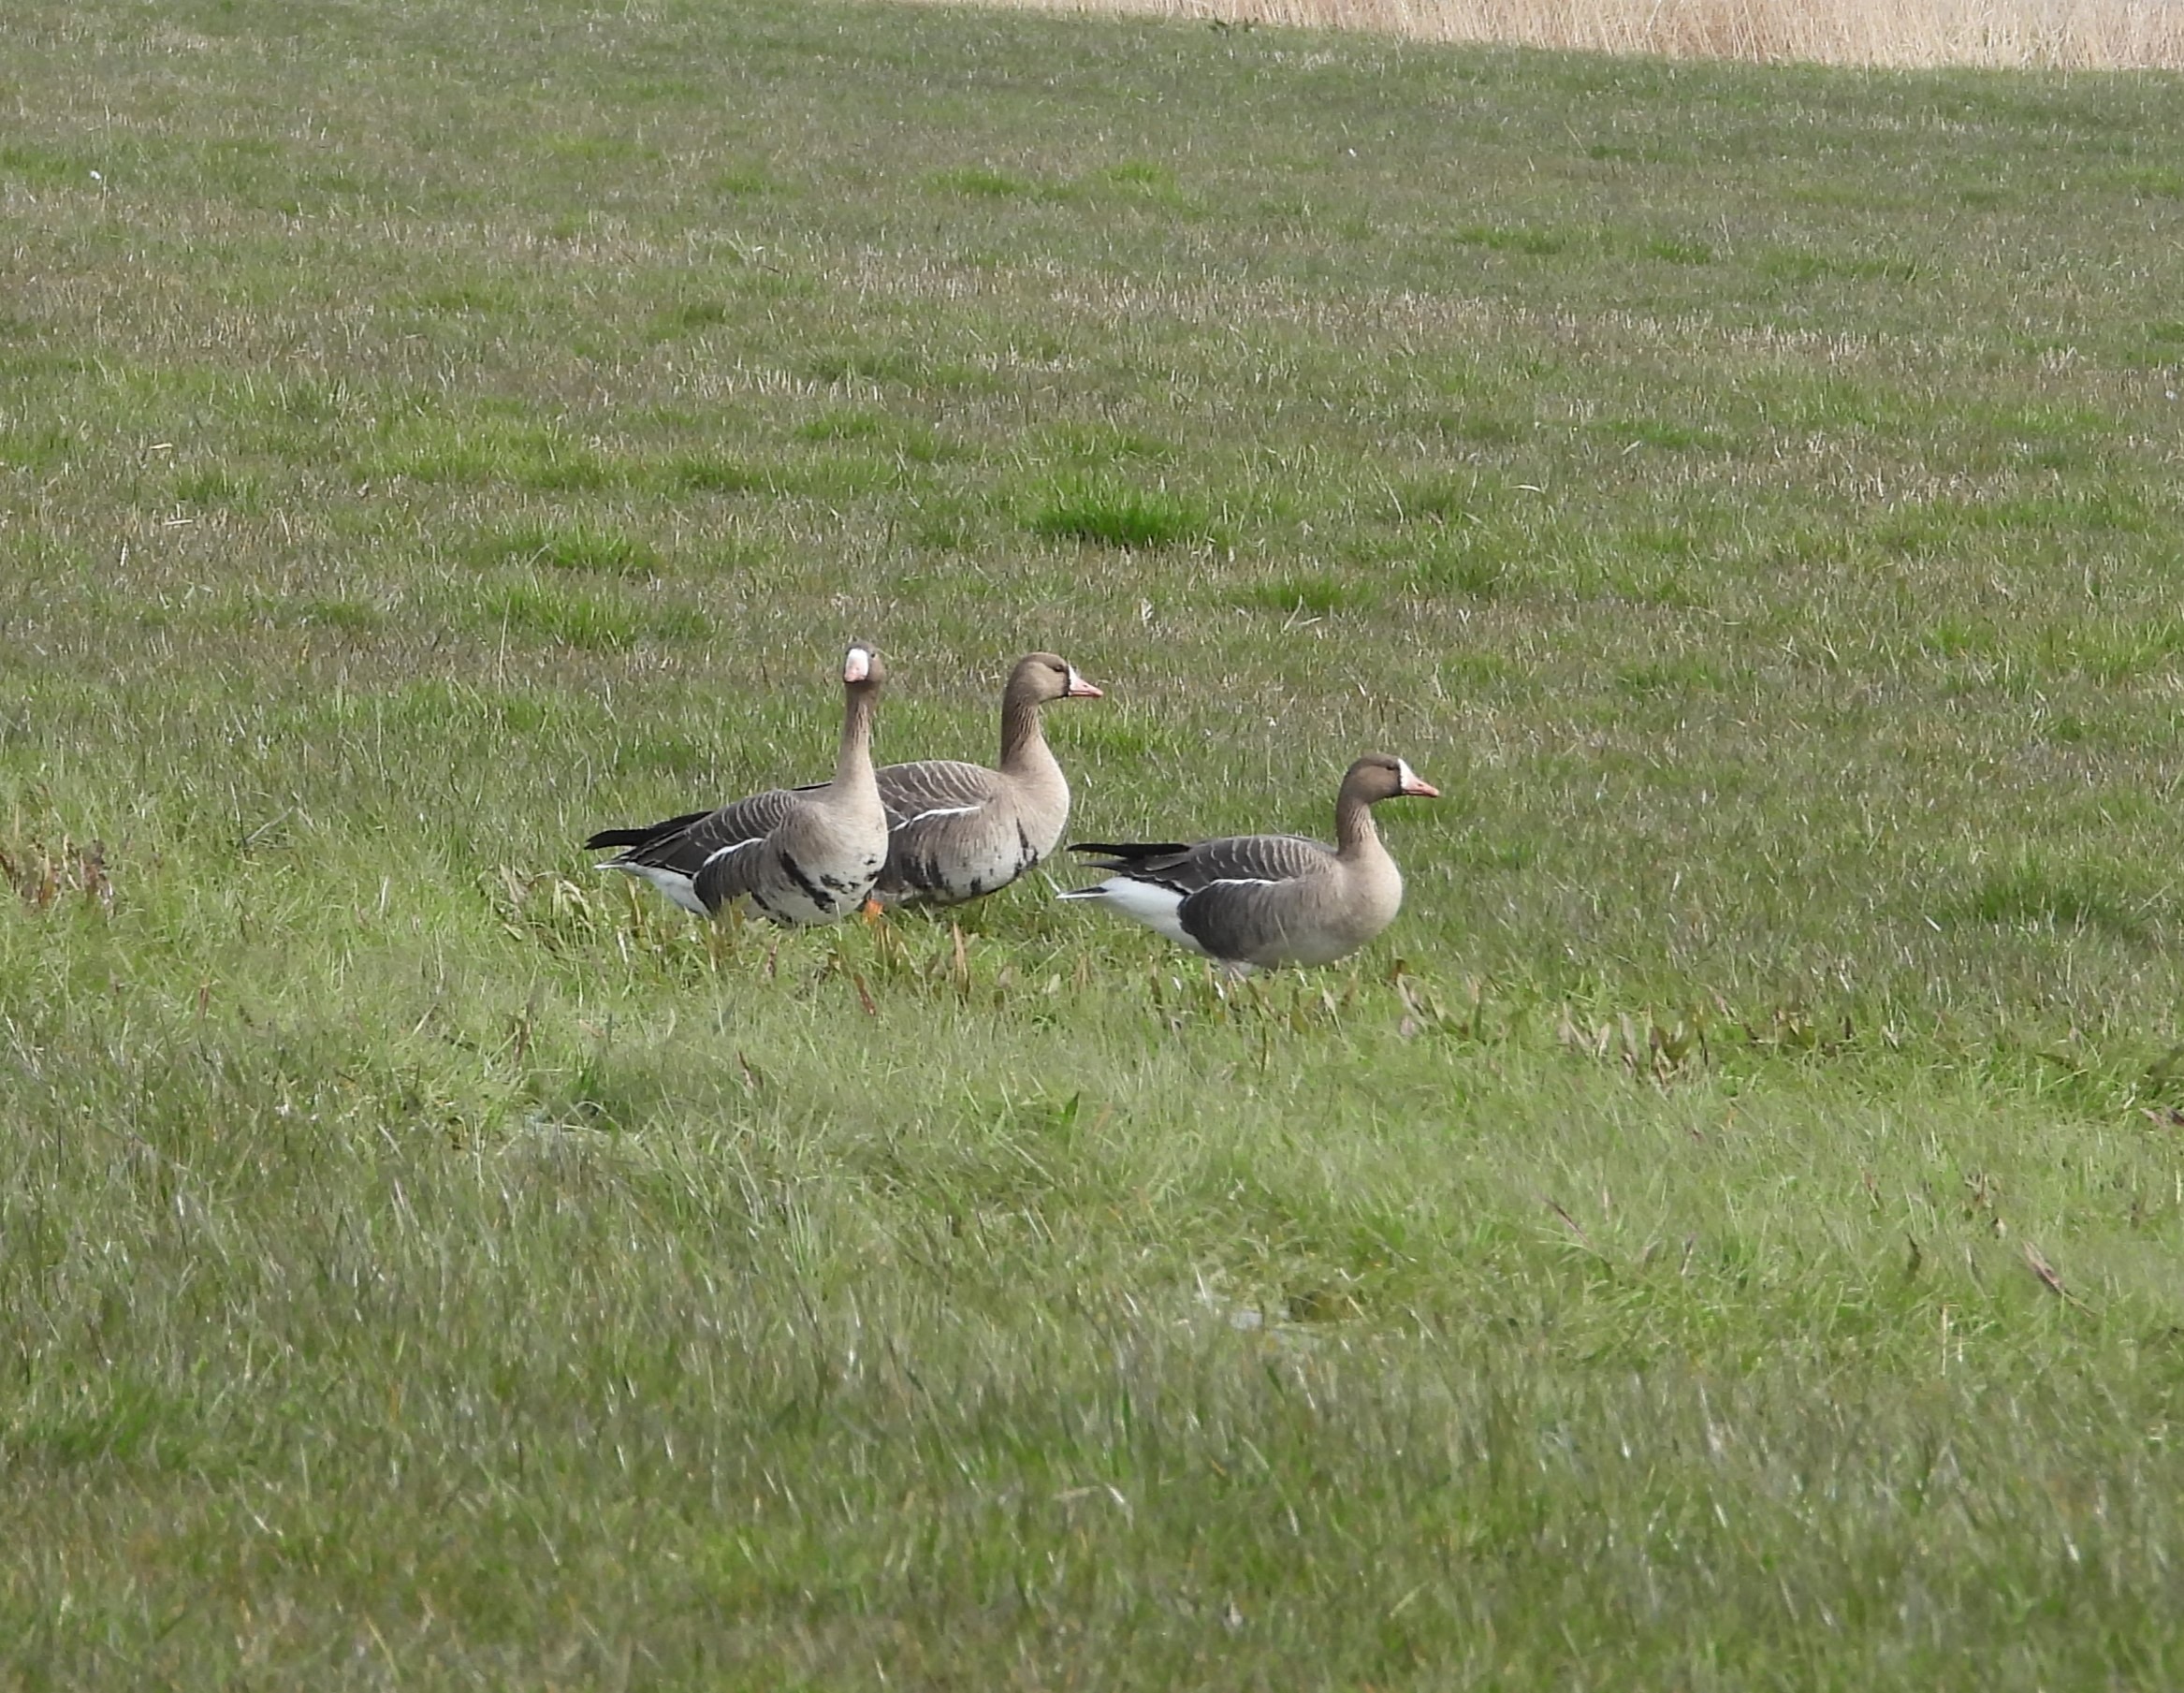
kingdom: Animalia
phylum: Chordata
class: Aves
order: Anseriformes
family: Anatidae
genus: Anser
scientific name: Anser albifrons
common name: Blisgås
